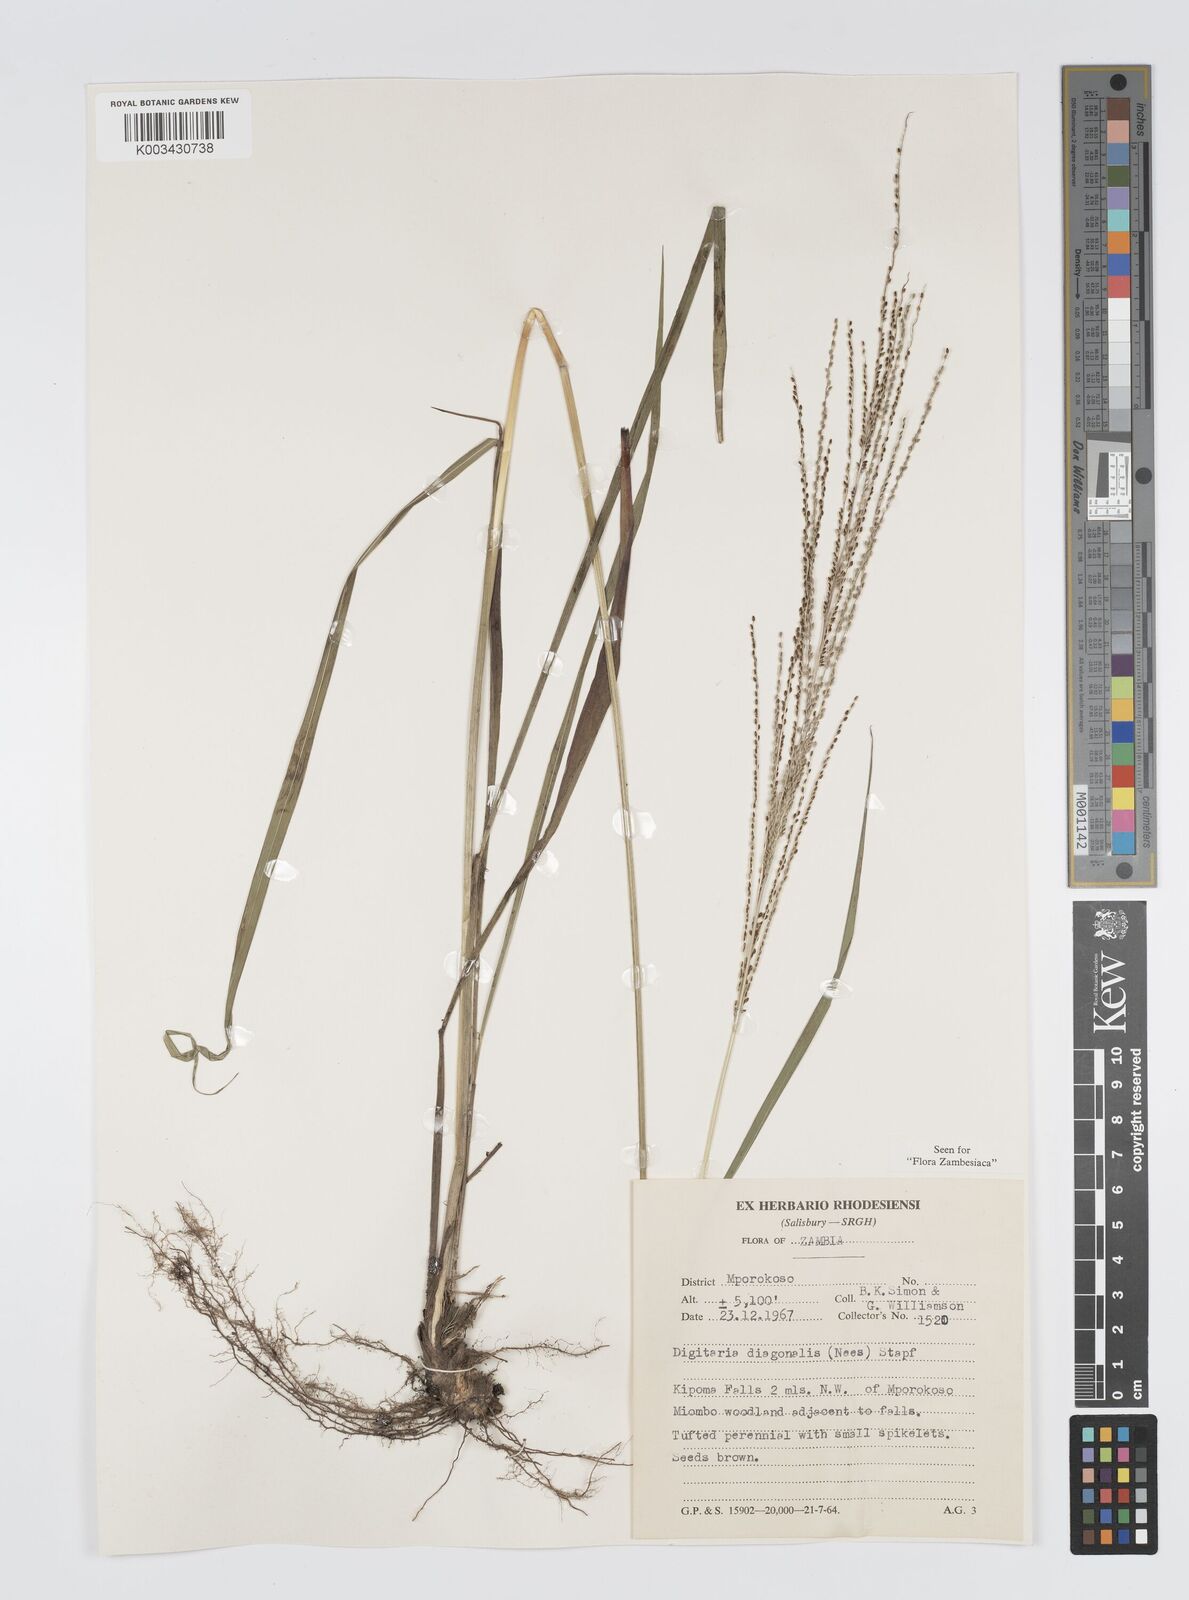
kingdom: Plantae
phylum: Tracheophyta
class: Liliopsida
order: Poales
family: Poaceae
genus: Digitaria
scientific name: Digitaria diagonalis
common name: Brown-seed finger grass
